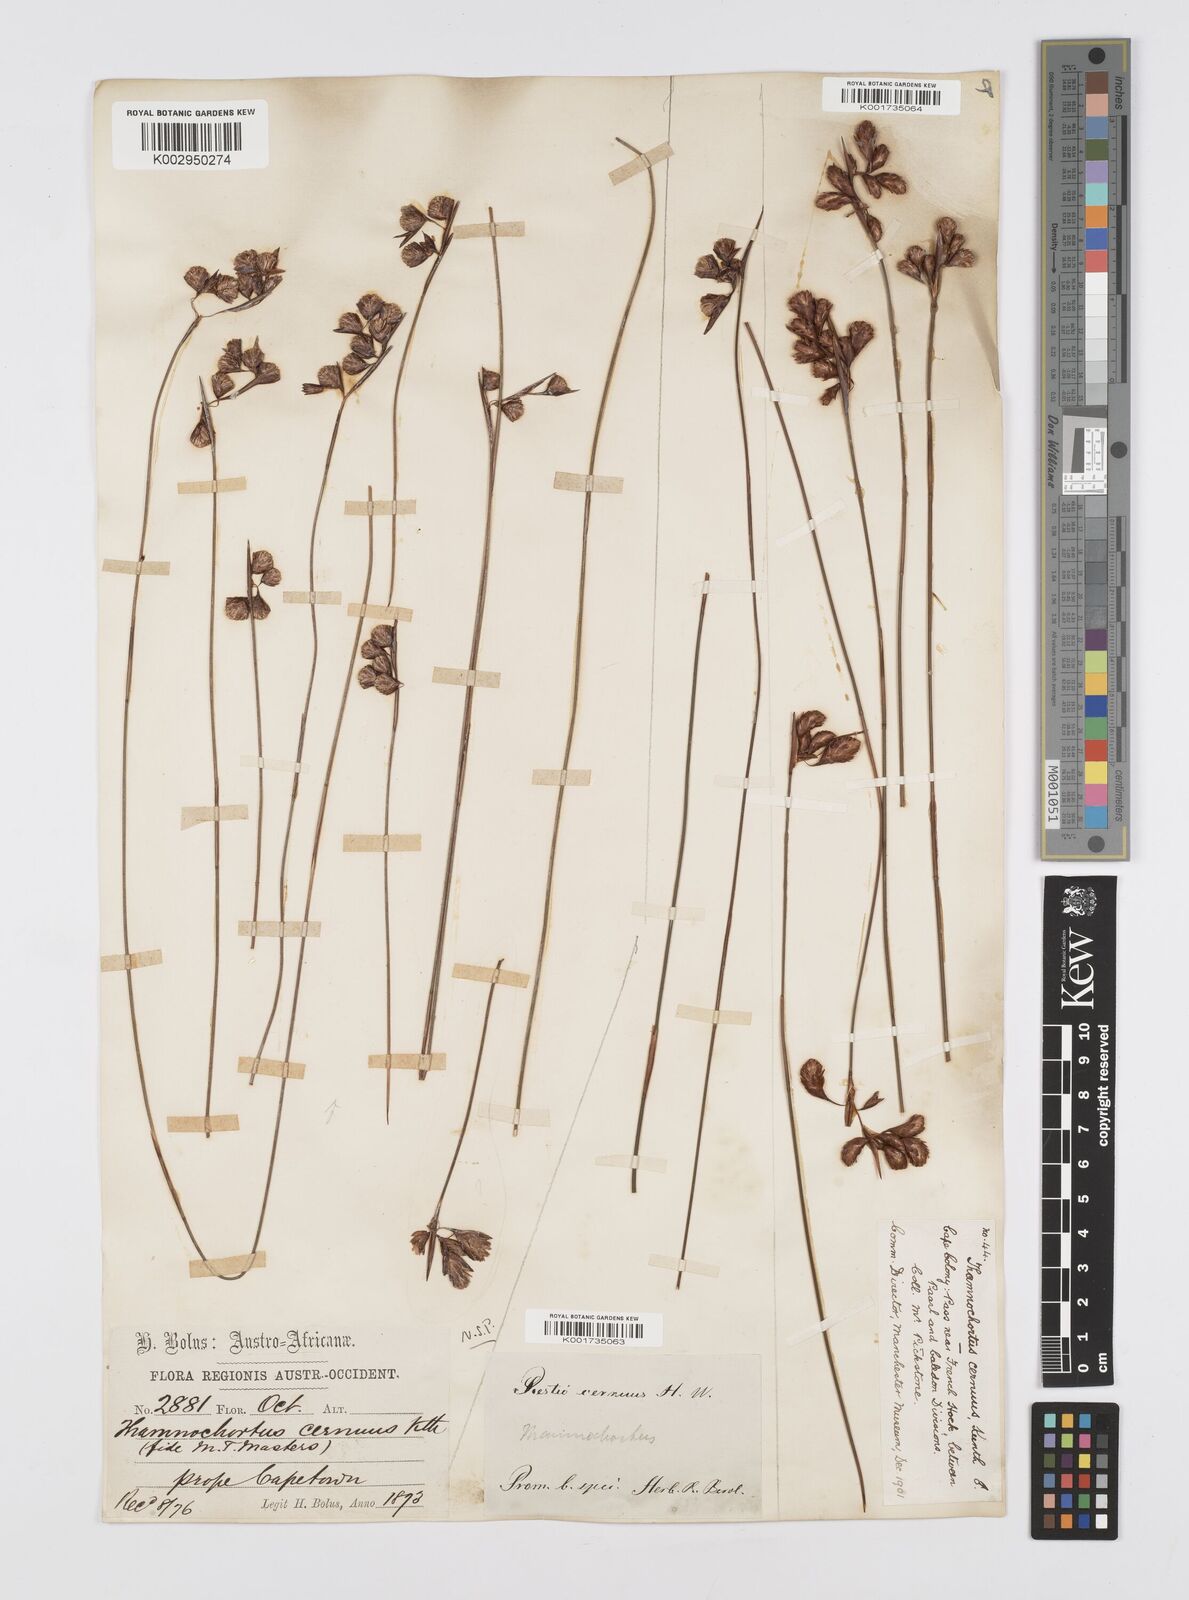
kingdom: Plantae
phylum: Tracheophyta
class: Liliopsida
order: Poales
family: Restionaceae
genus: Staberoha
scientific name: Staberoha cernua
